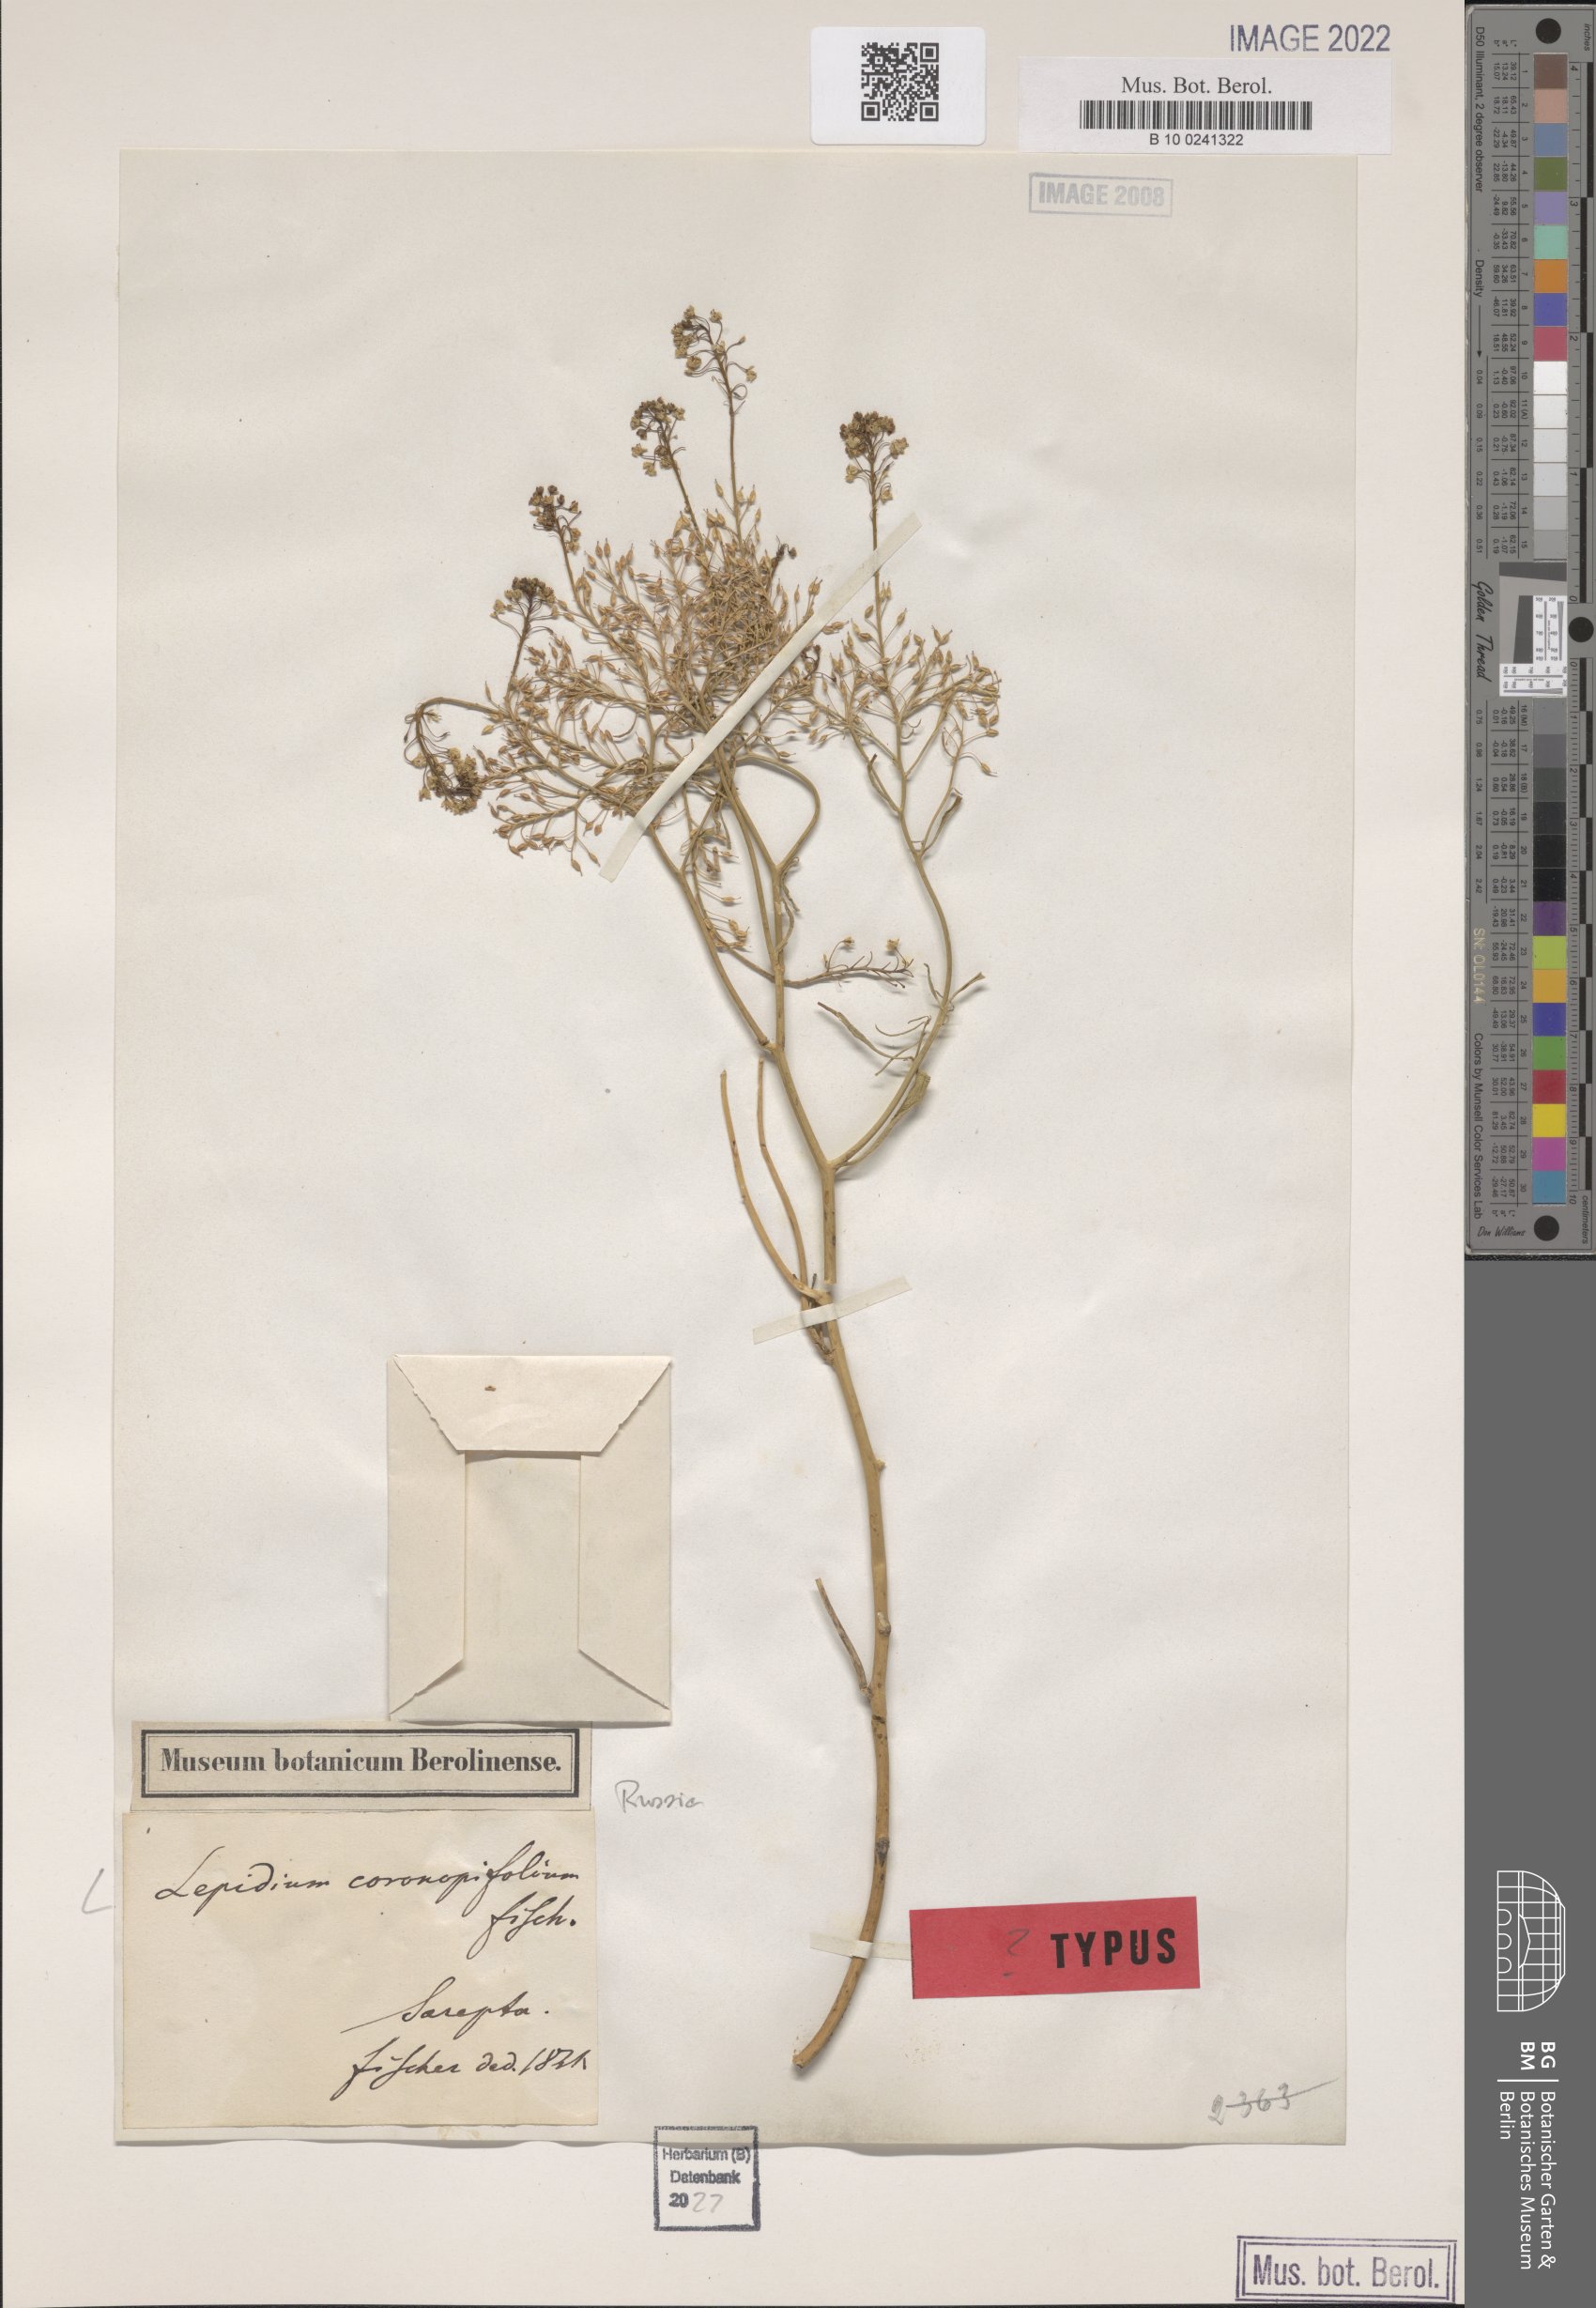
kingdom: Plantae
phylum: Tracheophyta
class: Magnoliopsida
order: Brassicales
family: Brassicaceae
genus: Lepidium
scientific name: Lepidium coronopifolium
